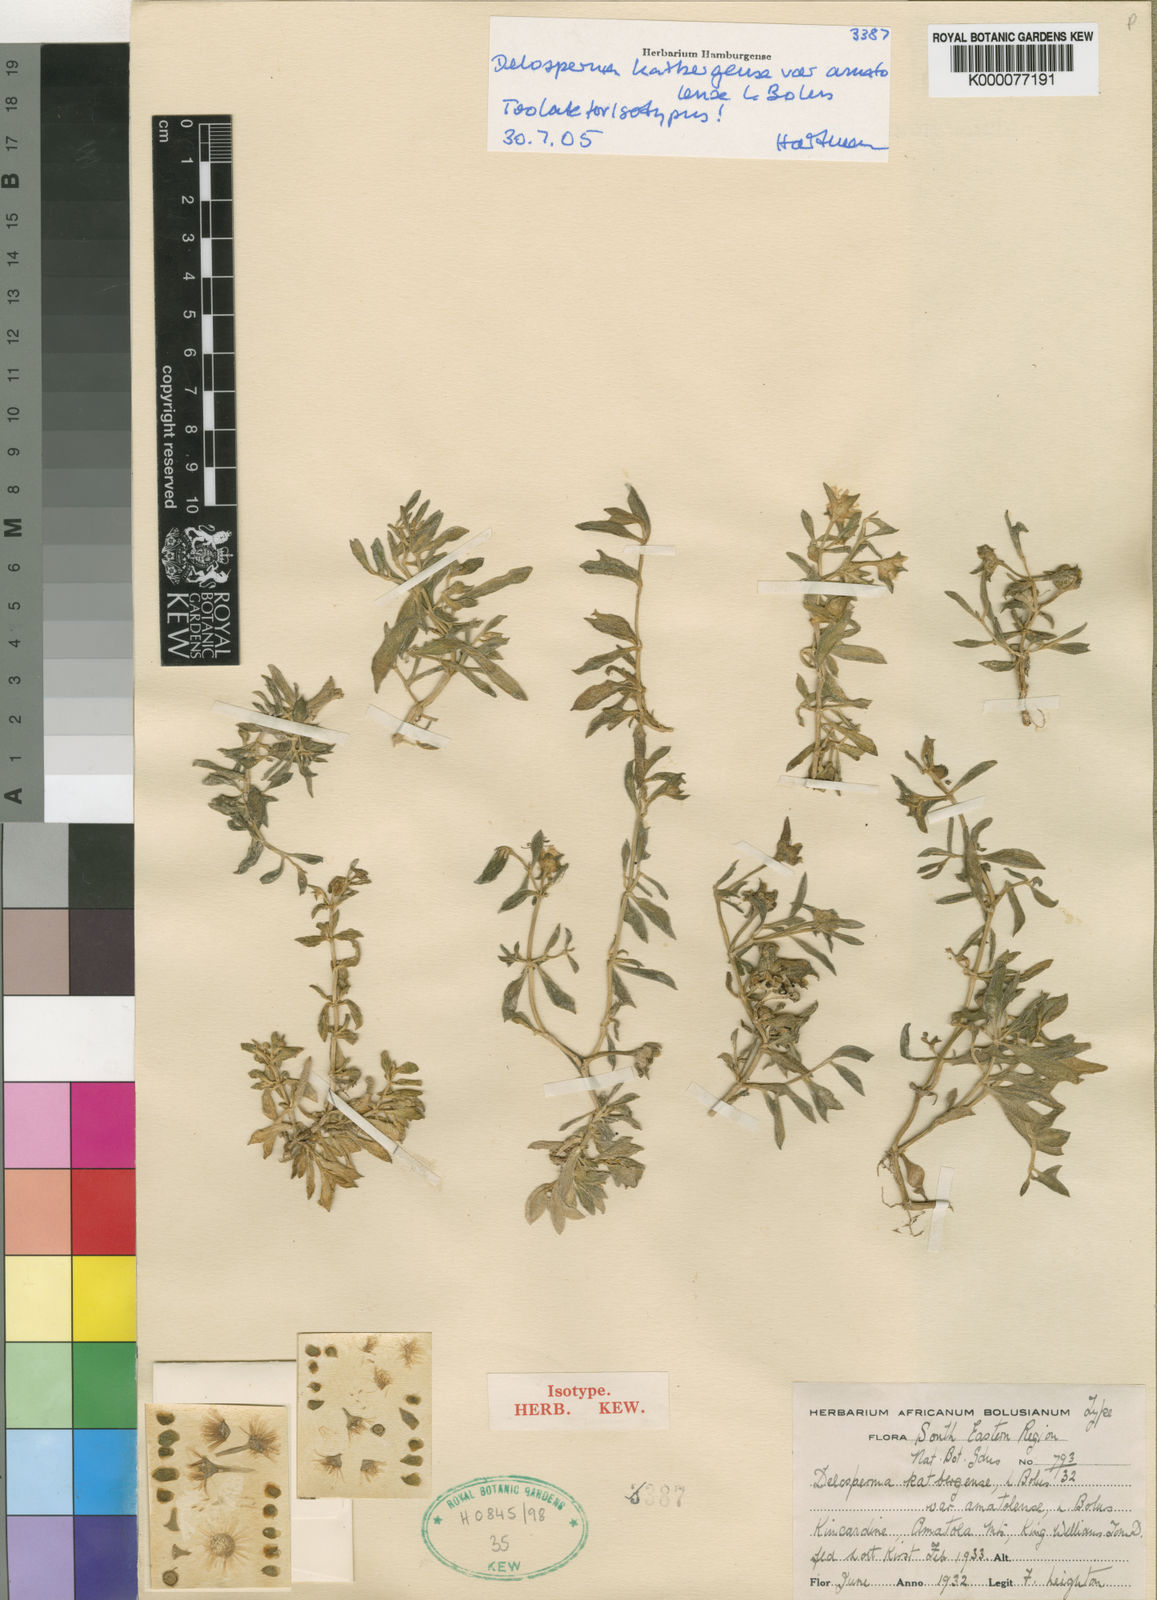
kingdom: Plantae
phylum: Tracheophyta
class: Magnoliopsida
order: Caryophyllales
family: Aizoaceae
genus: Delosperma
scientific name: Delosperma katbergense
